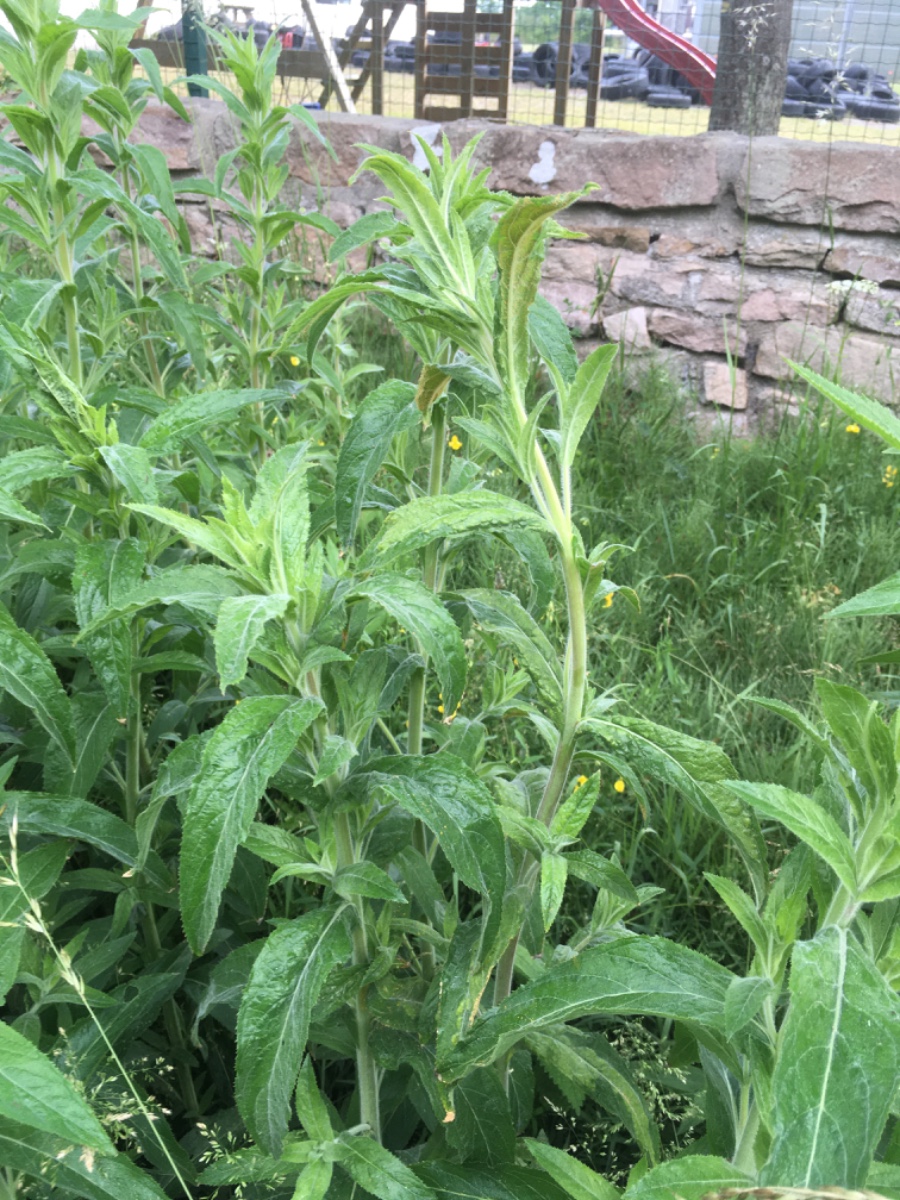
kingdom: Fungi
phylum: Basidiomycota
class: Pucciniomycetes
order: Pucciniales
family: Pucciniaceae
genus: Puccinia
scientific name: Puccinia pulverulenta
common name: dueurt-tvecellerust
